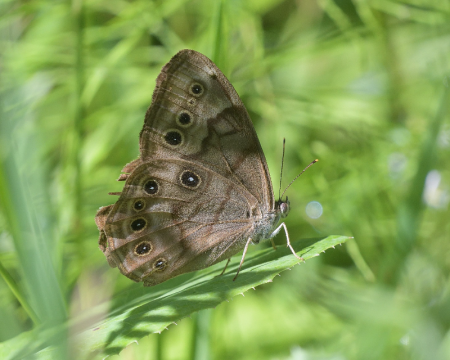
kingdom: Animalia
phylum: Arthropoda
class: Insecta
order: Lepidoptera
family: Nymphalidae
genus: Lethe
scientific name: Lethe anthedon
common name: Northern Pearly-Eye
